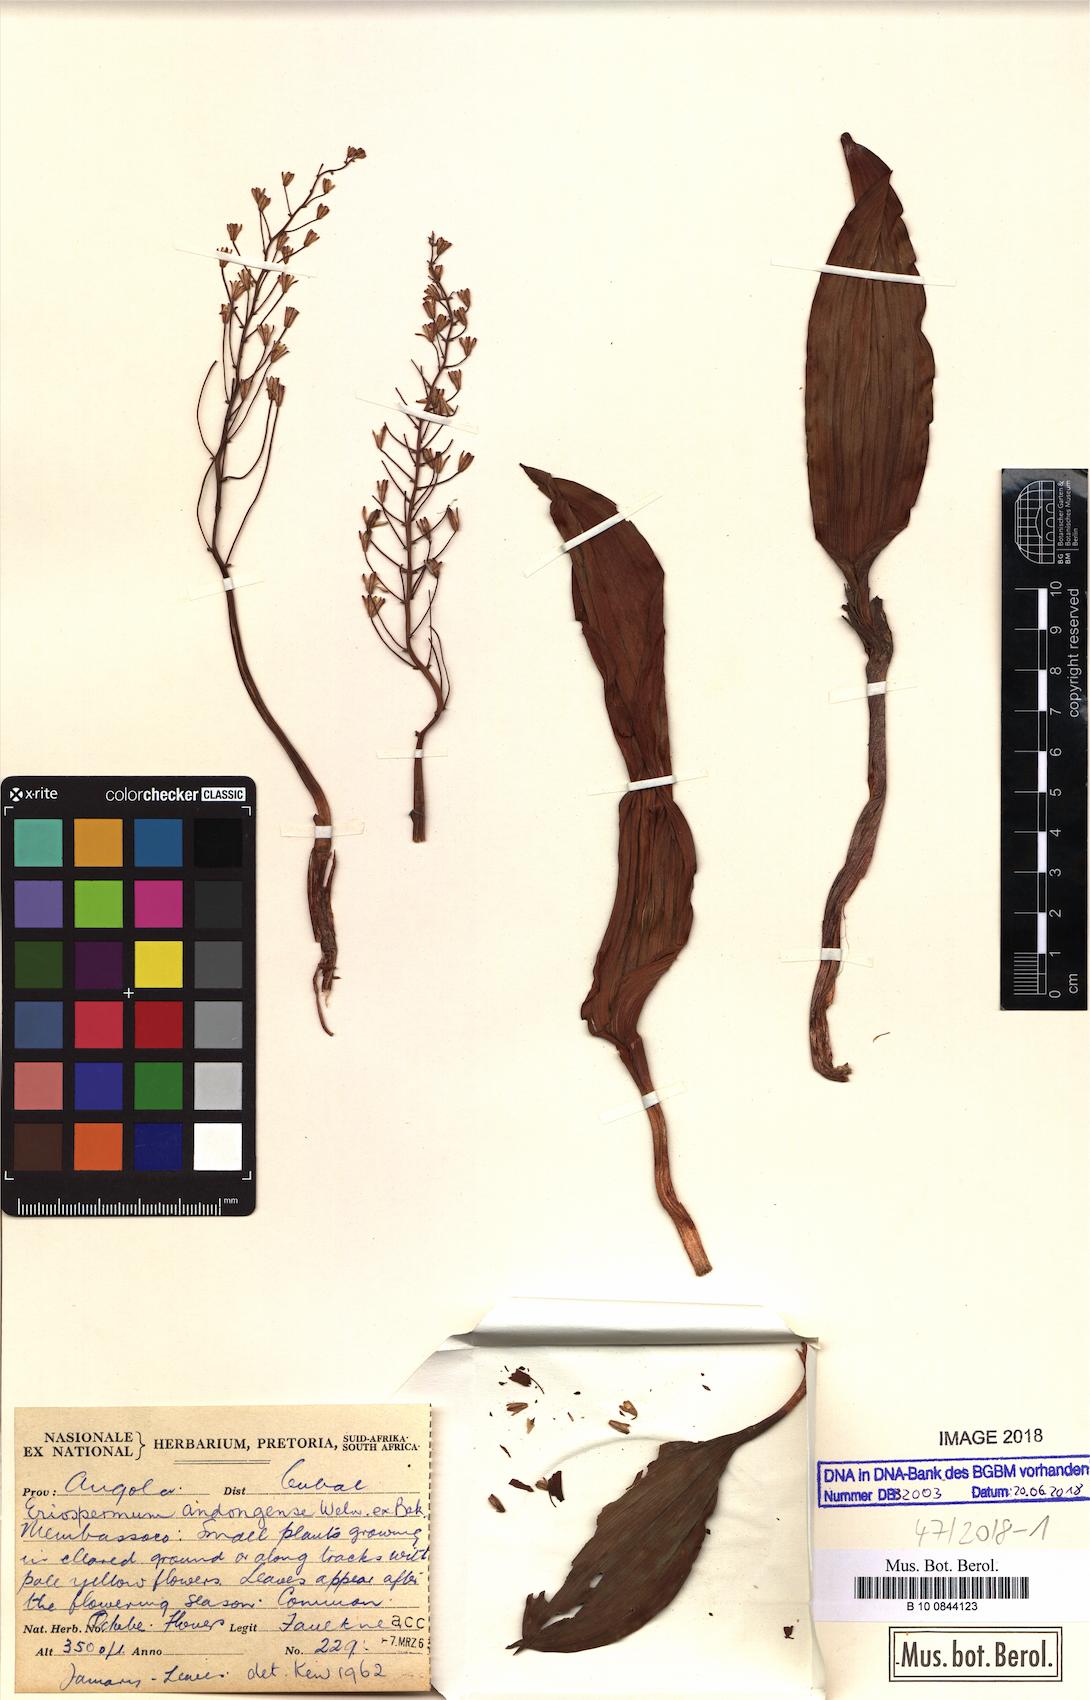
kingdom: Plantae
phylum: Tracheophyta
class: Liliopsida
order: Asparagales
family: Asparagaceae
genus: Eriospermum
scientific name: Eriospermum andongense
